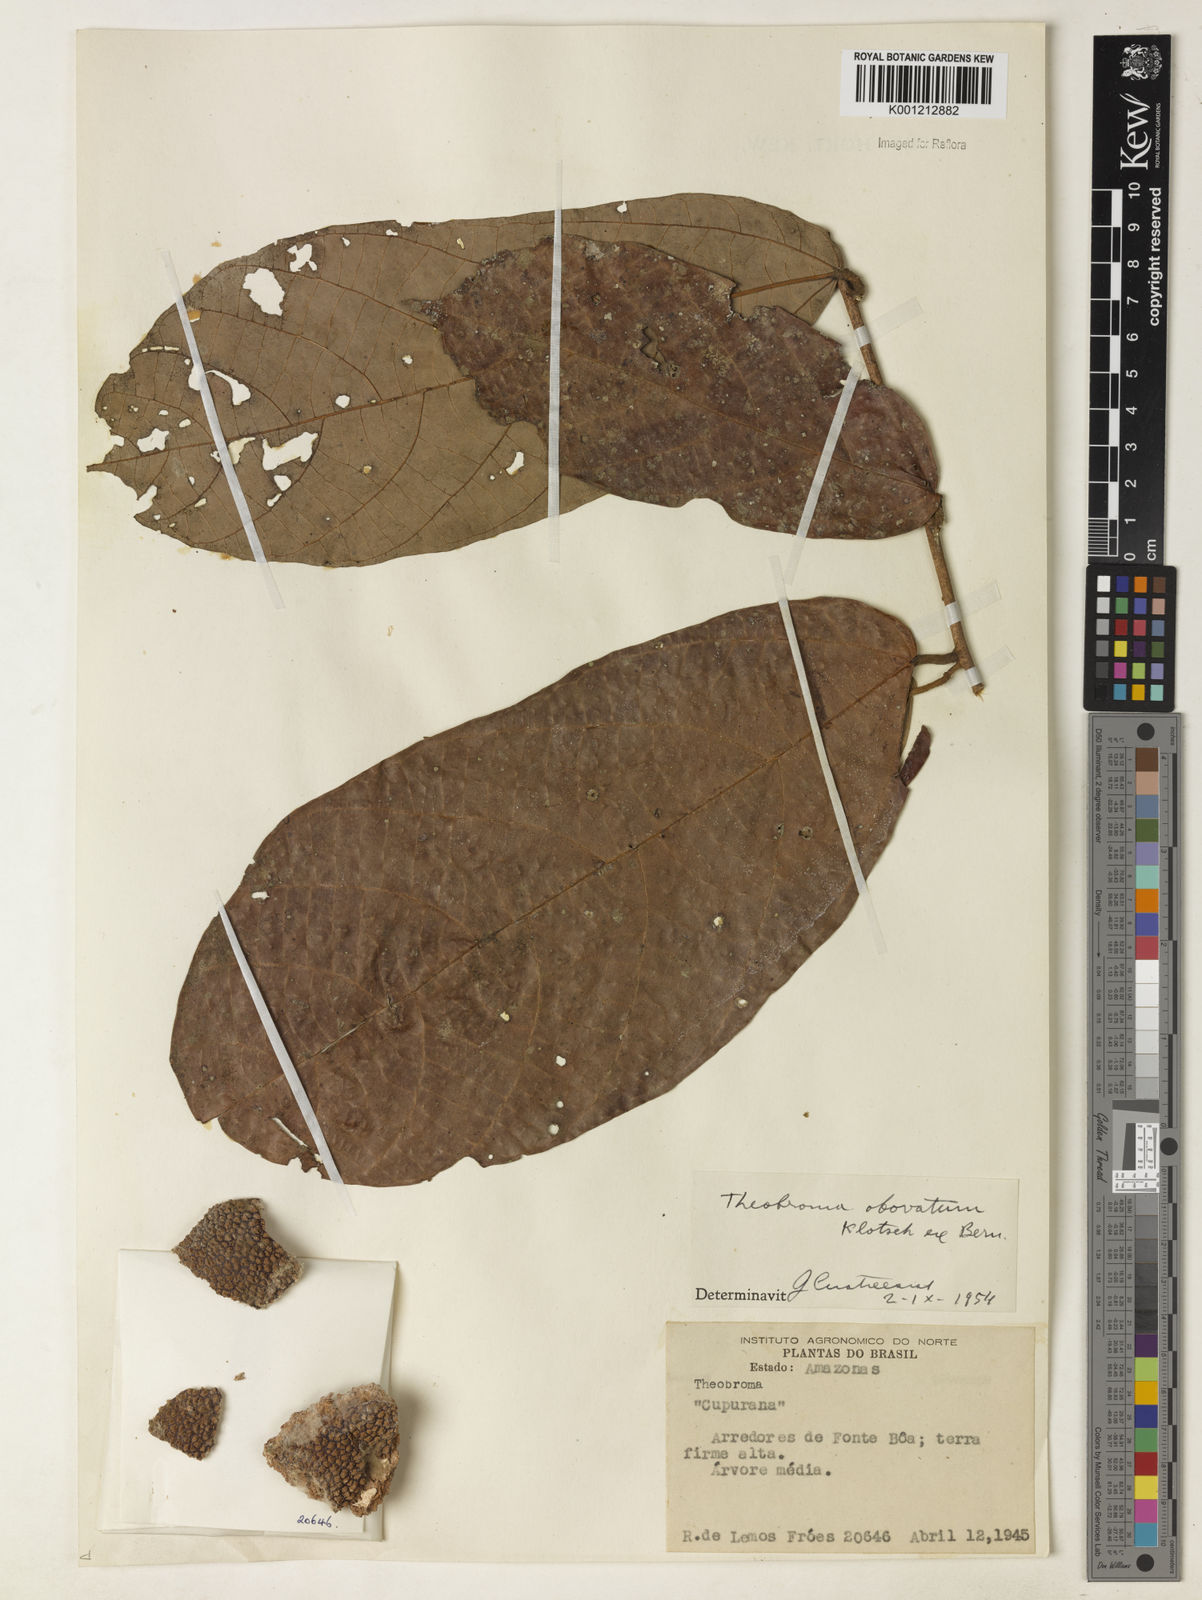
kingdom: Plantae
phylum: Tracheophyta
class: Magnoliopsida
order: Malvales
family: Malvaceae
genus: Theobroma
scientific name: Theobroma obovatum
